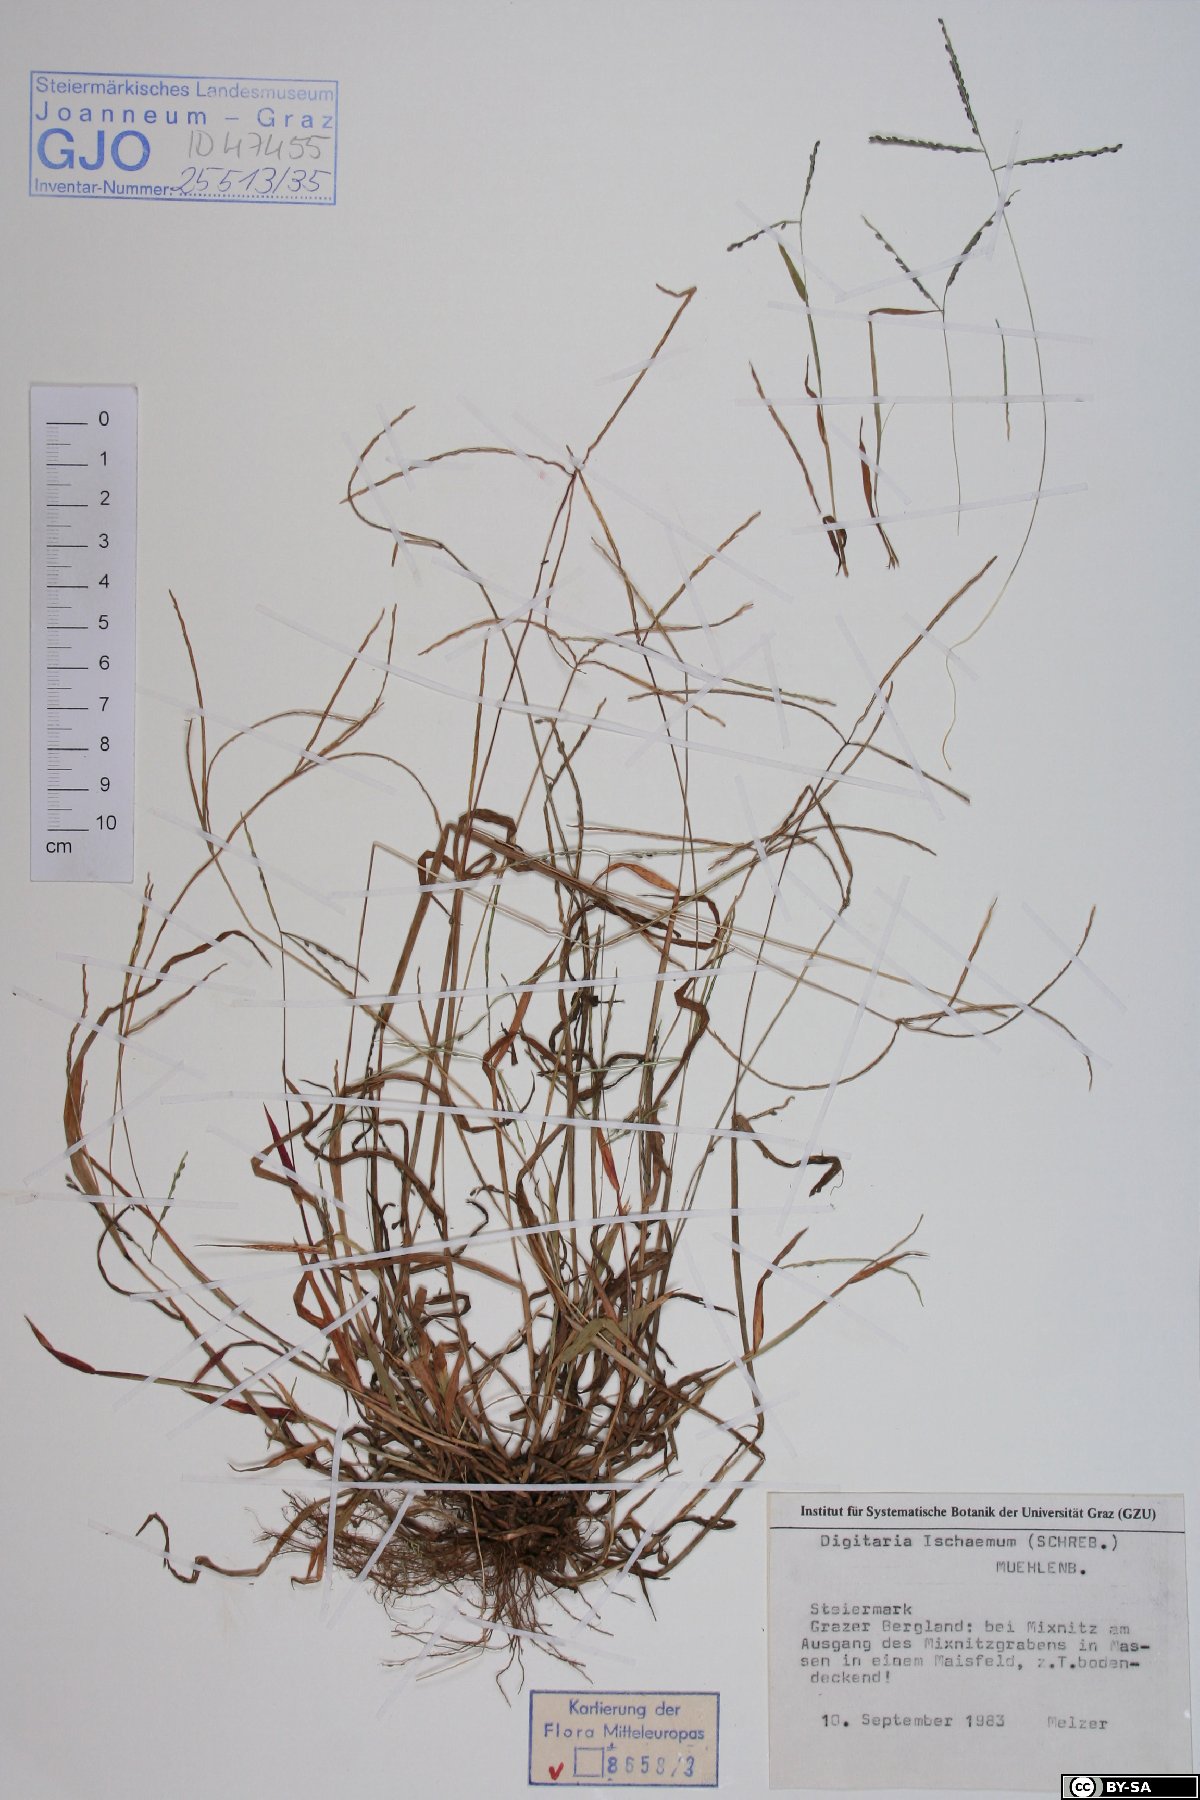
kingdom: Plantae
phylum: Tracheophyta
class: Liliopsida
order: Poales
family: Poaceae
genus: Digitaria
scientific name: Digitaria ischaemum
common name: Smooth crabgrass
